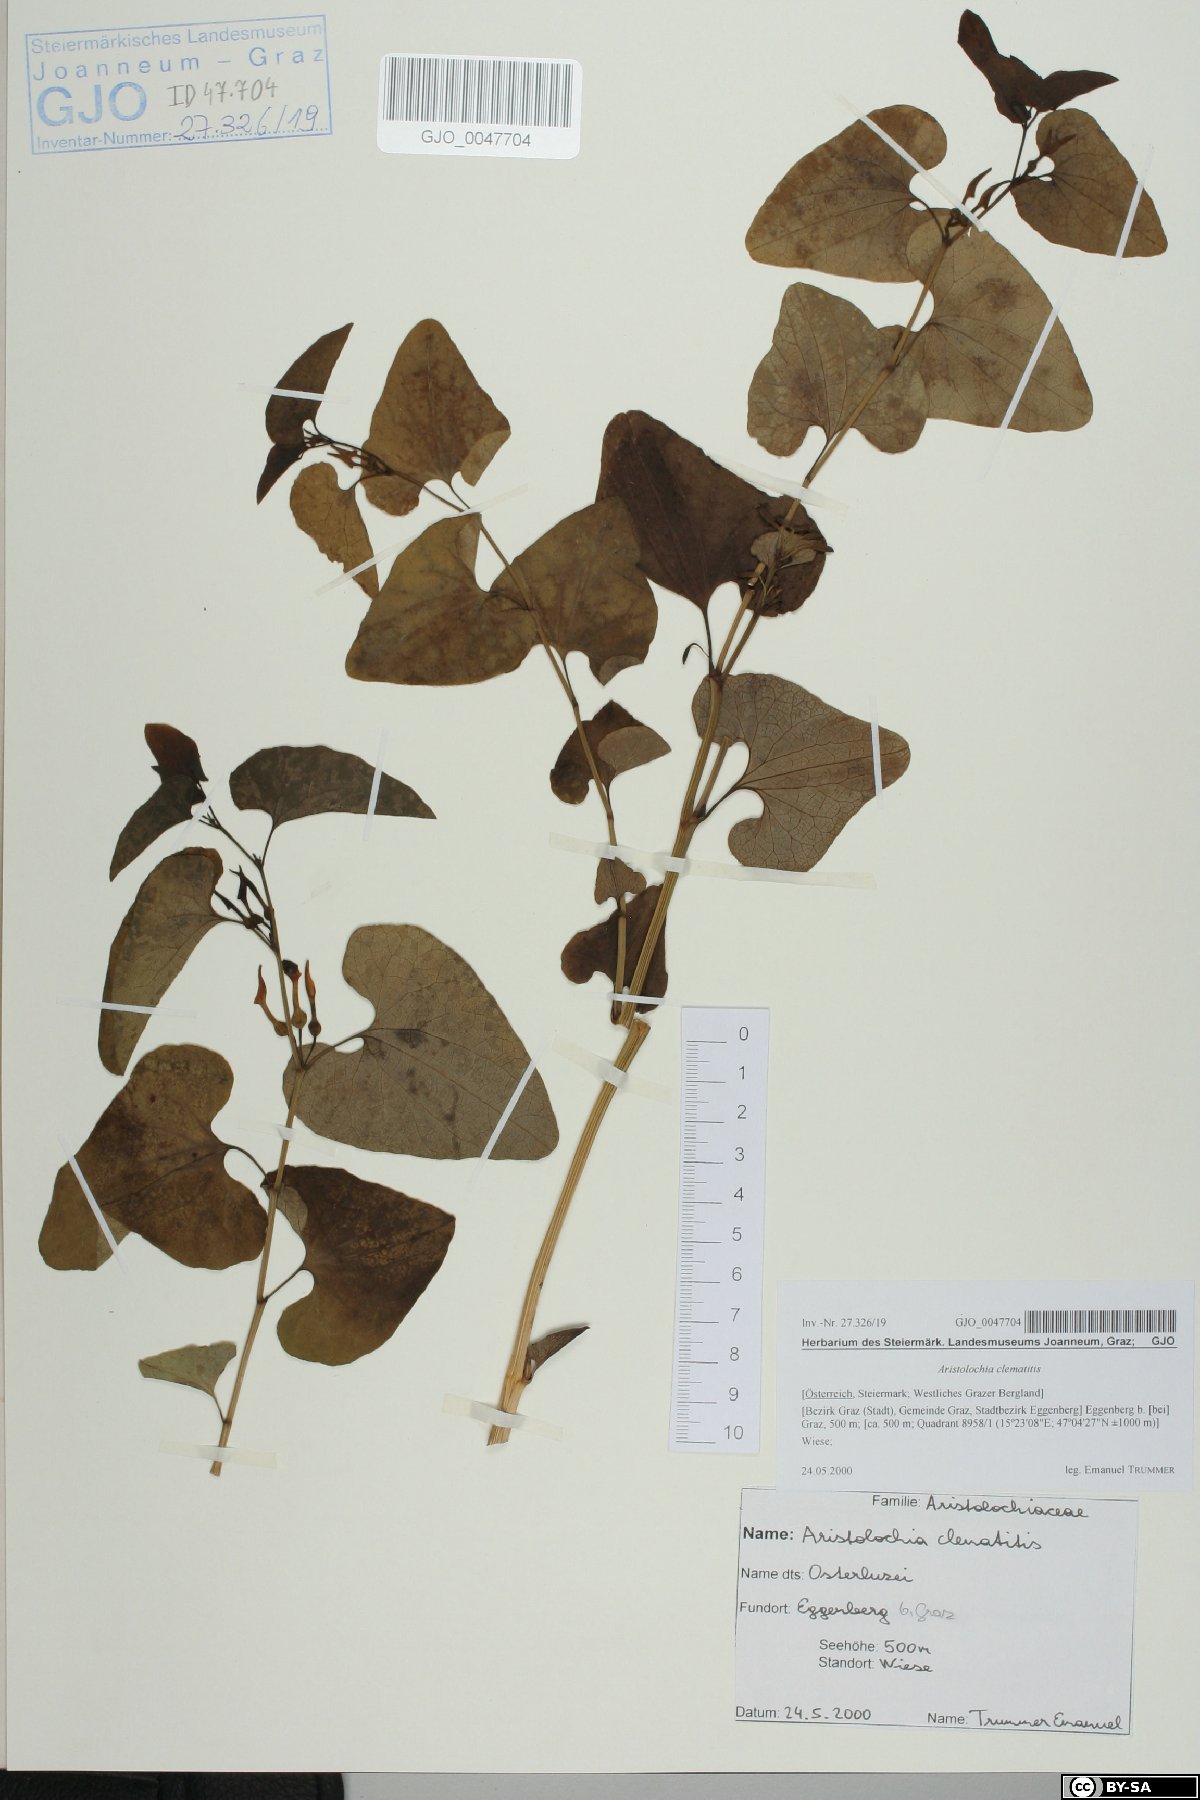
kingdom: Plantae
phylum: Tracheophyta
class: Magnoliopsida
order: Piperales
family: Aristolochiaceae
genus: Aristolochia
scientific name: Aristolochia clematitis
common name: Birthwort
